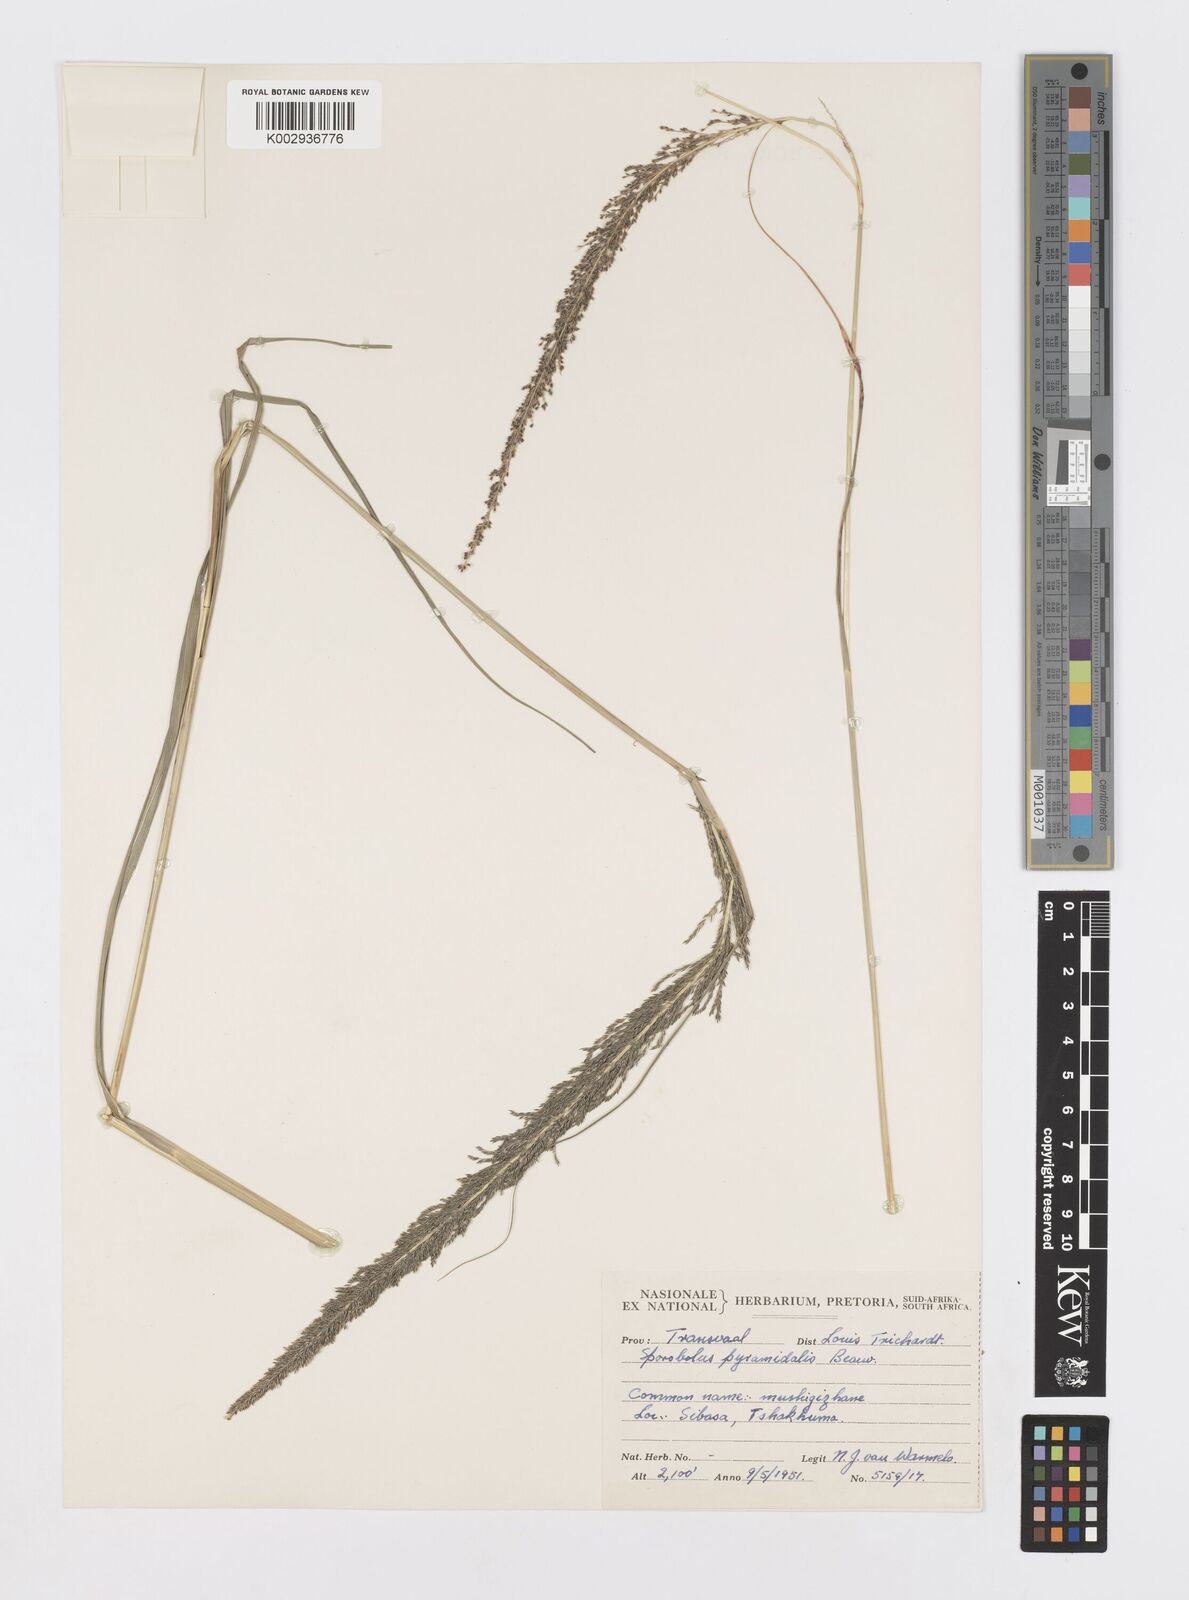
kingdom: Plantae
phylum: Tracheophyta
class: Liliopsida
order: Poales
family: Poaceae
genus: Sporobolus
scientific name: Sporobolus pyramidalis
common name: West indian dropseed
